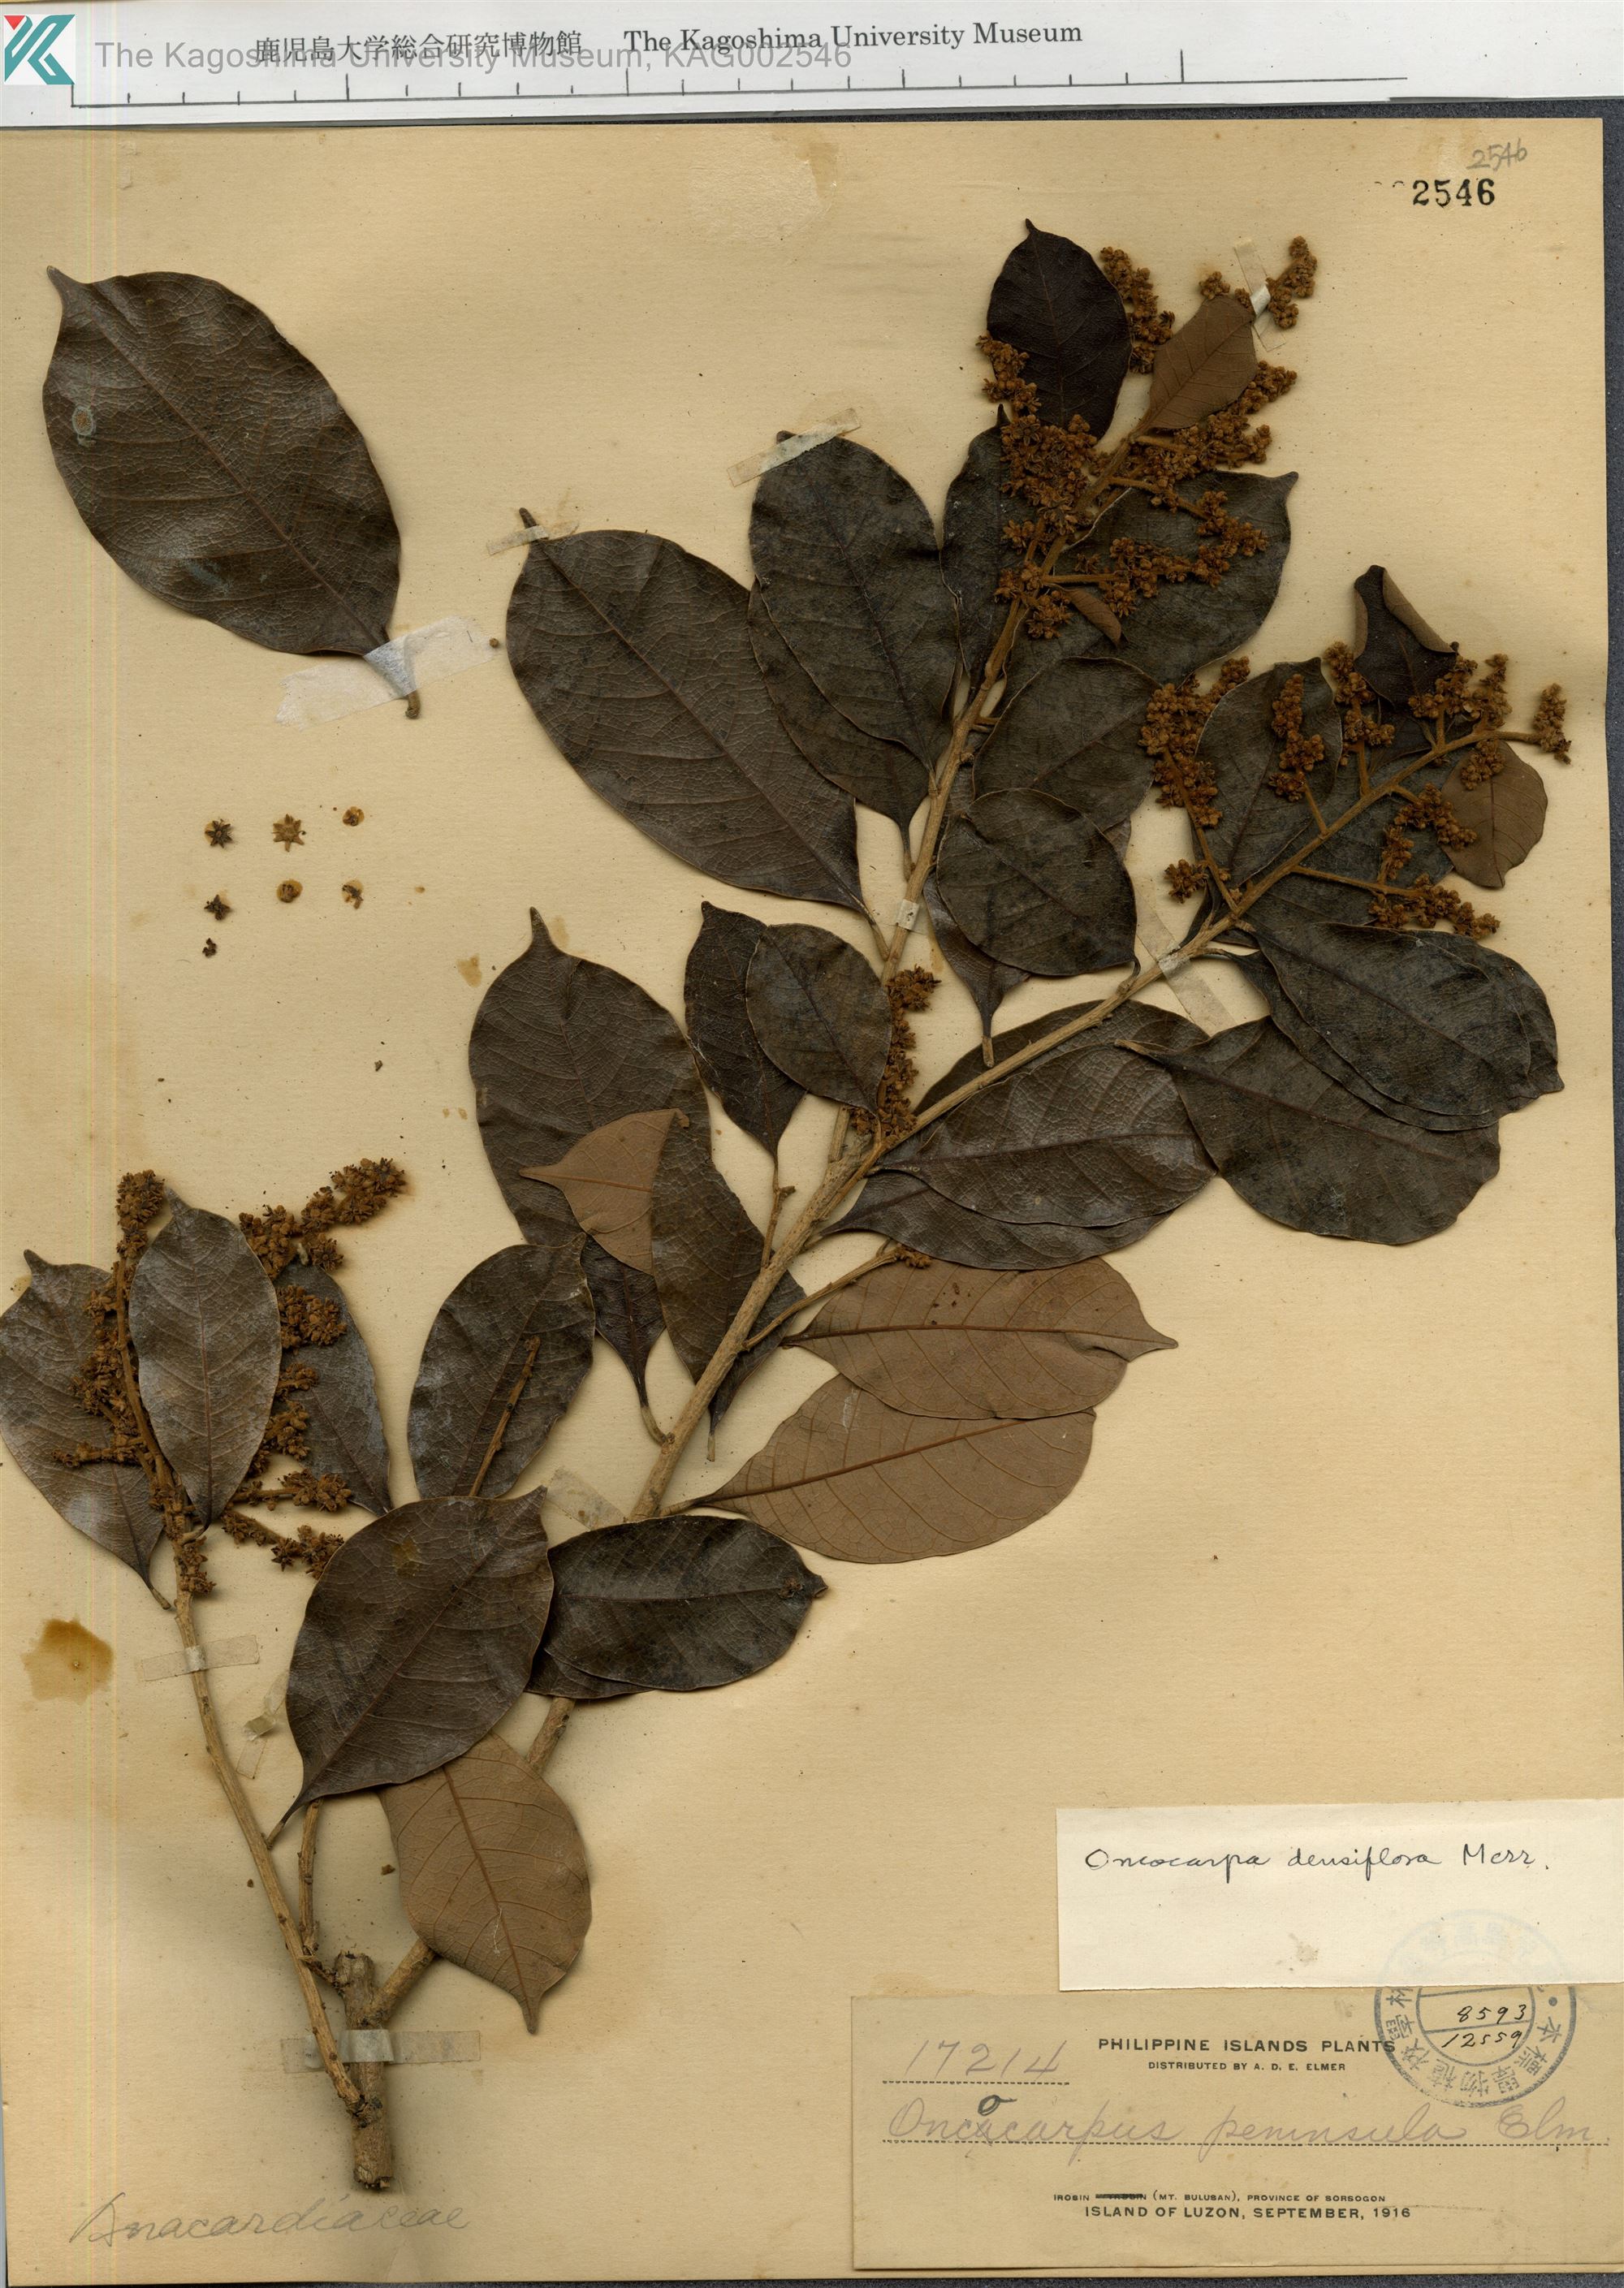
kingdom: Plantae
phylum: Tracheophyta
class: Magnoliopsida
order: Sapindales
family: Anacardiaceae
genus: Semecarpus
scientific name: Semecarpus densiflorus
